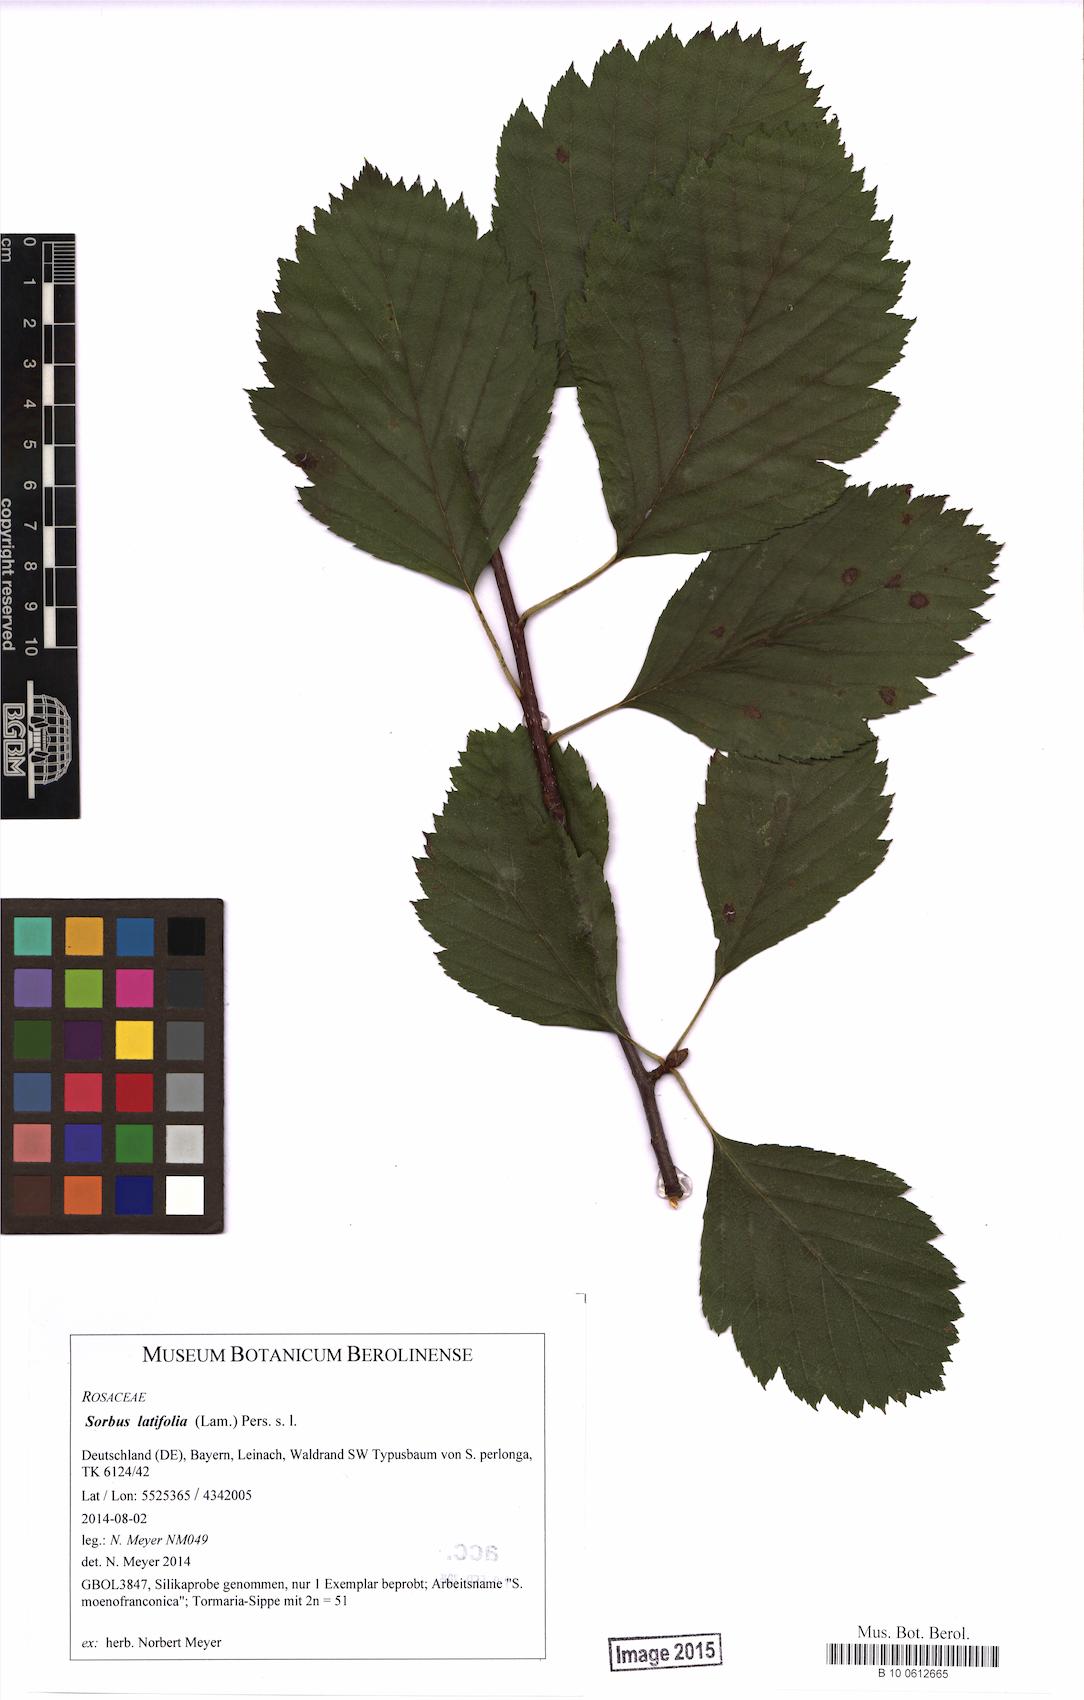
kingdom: Plantae
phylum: Tracheophyta
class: Magnoliopsida
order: Rosales
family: Rosaceae
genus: Karpatiosorbus
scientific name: Karpatiosorbus latifolia
